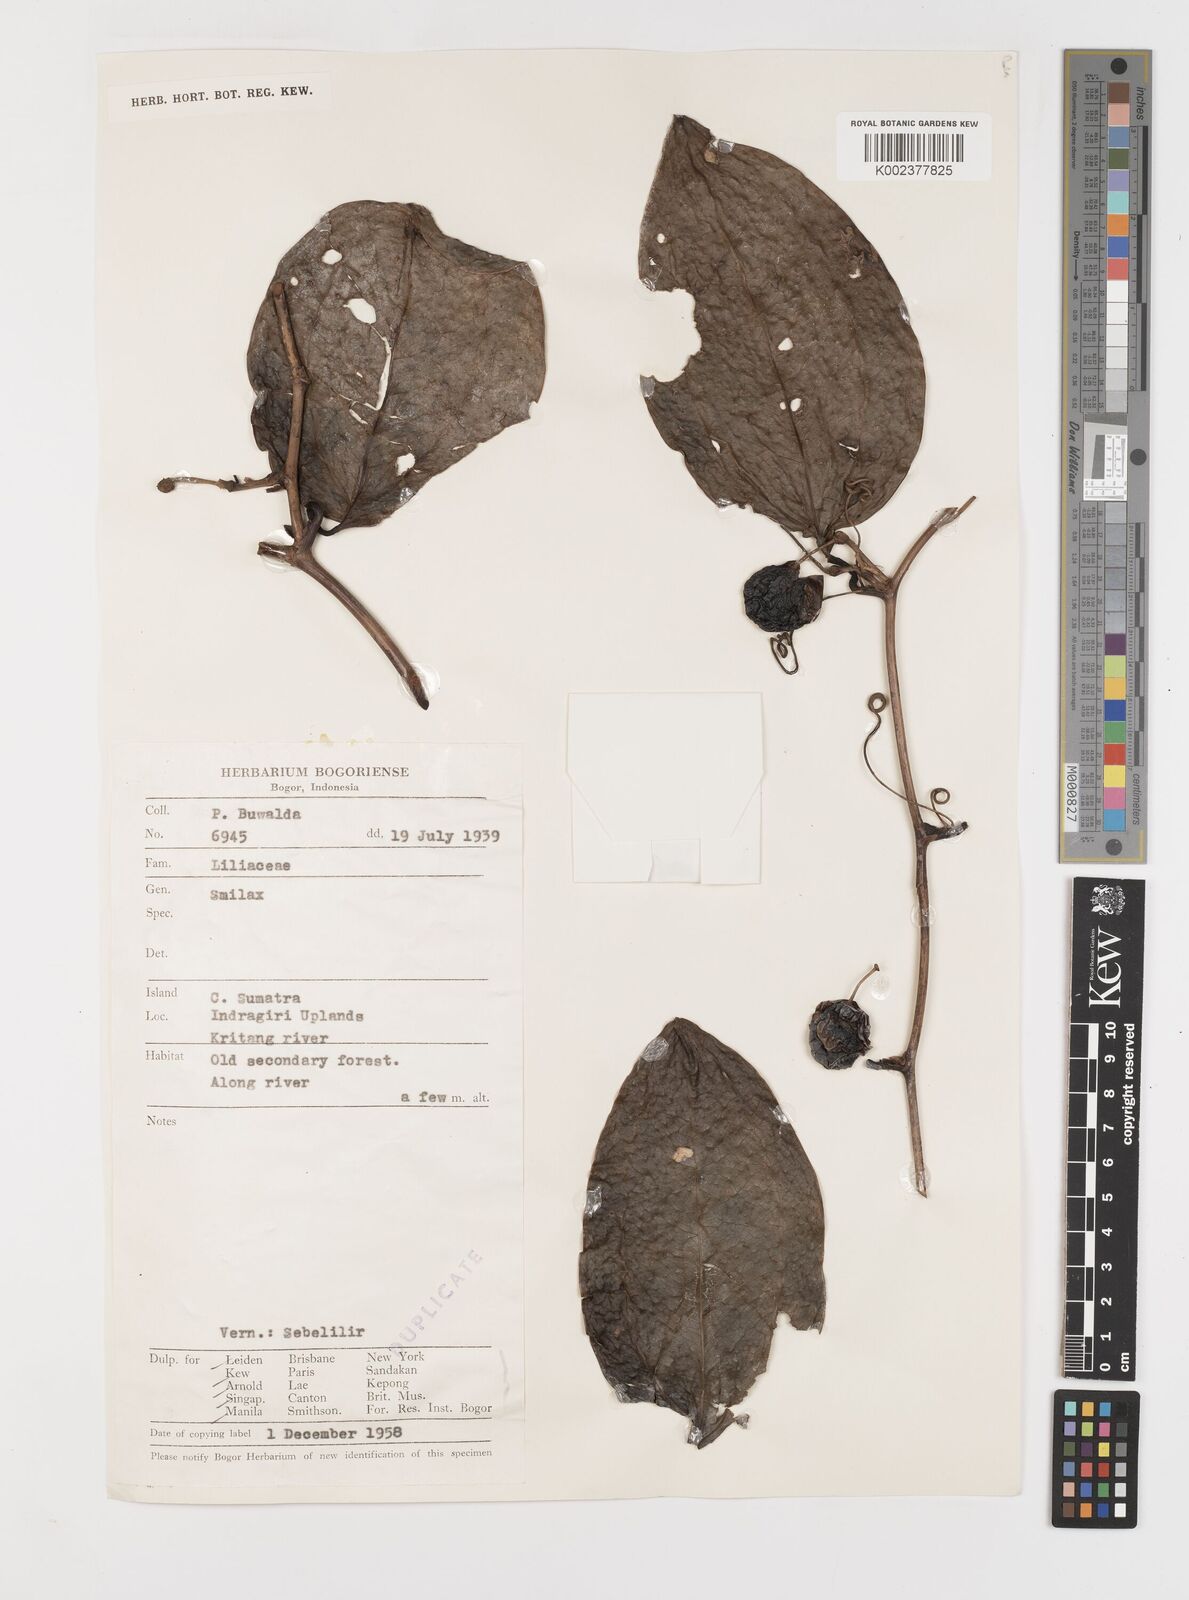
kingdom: Plantae
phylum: Tracheophyta
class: Liliopsida
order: Liliales
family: Smilacaceae
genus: Smilax
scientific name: Smilax
